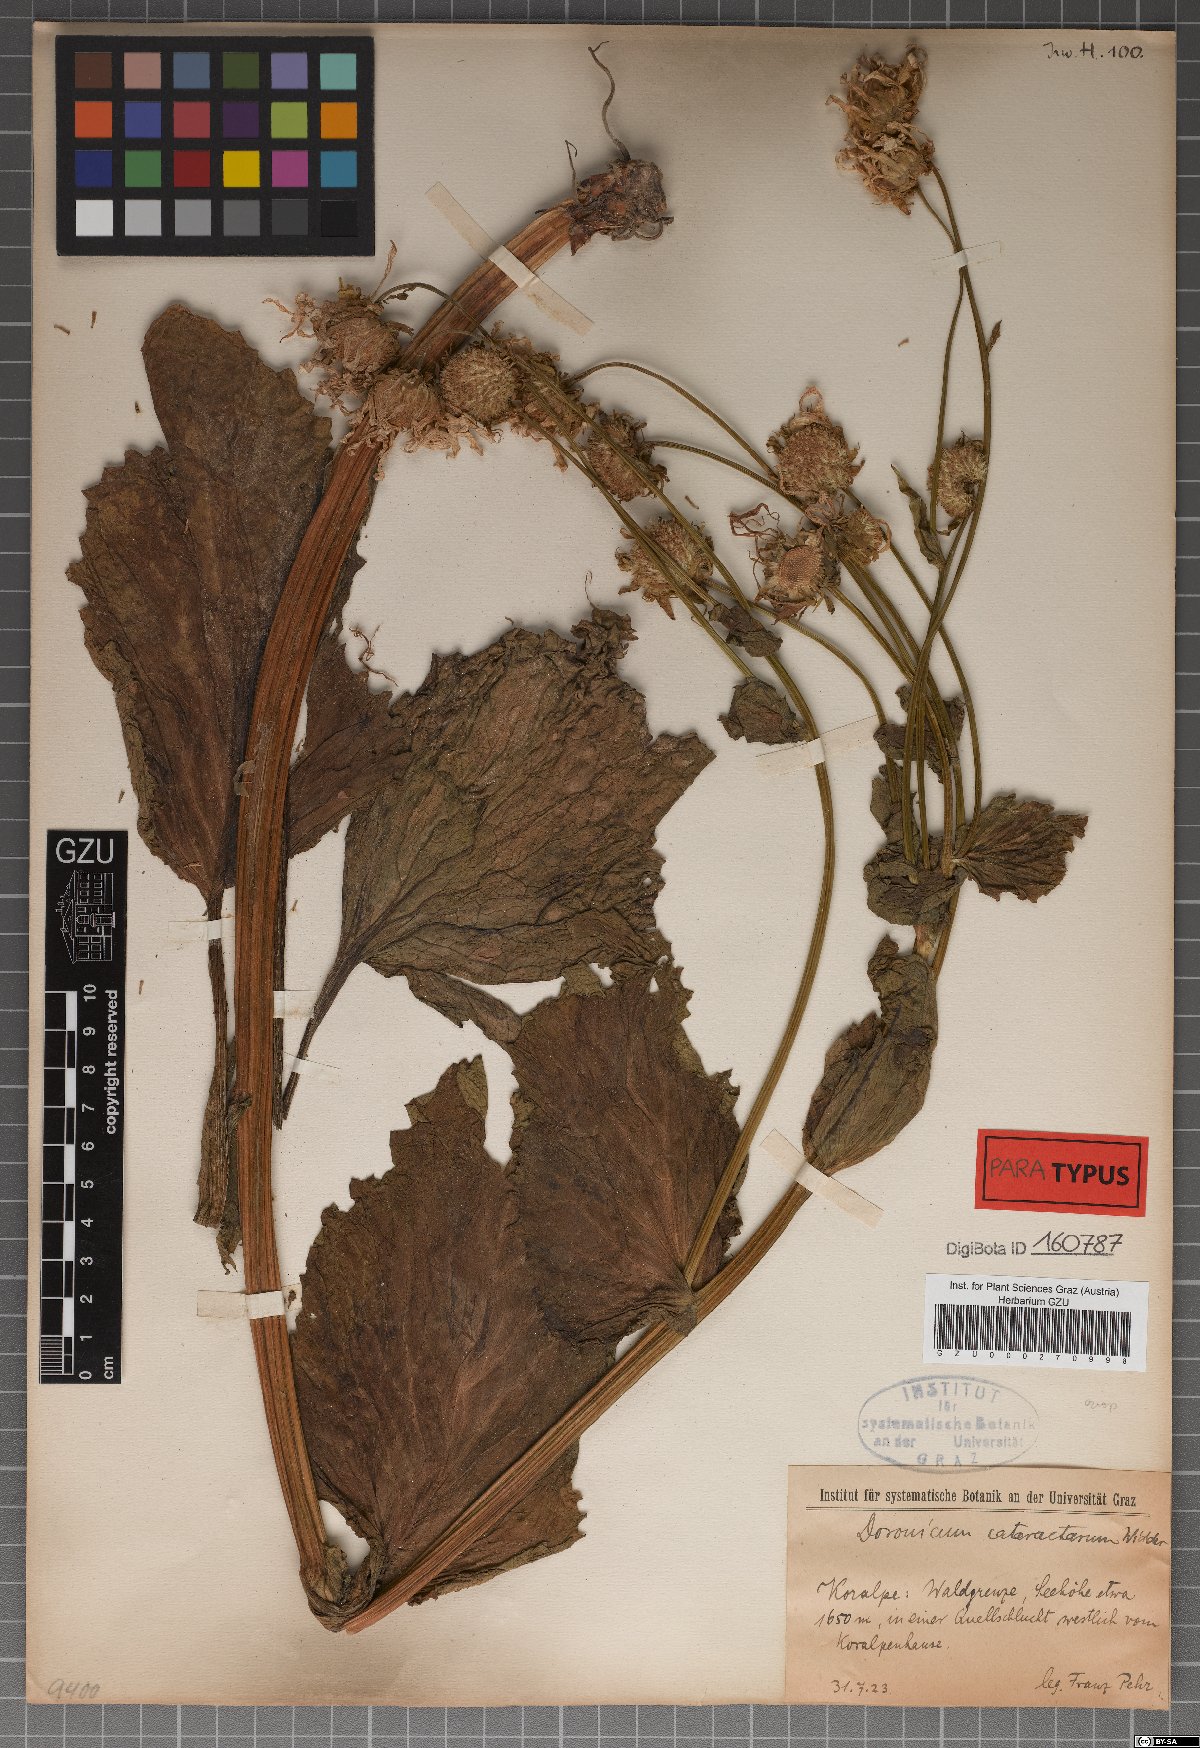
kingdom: Plantae
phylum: Tracheophyta
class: Magnoliopsida
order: Asterales
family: Asteraceae
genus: Doronicum
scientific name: Doronicum cataractarum
